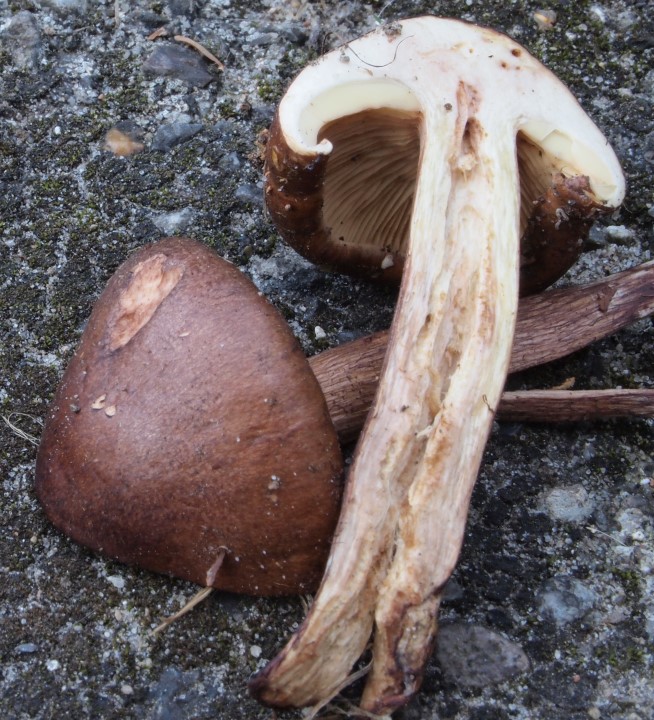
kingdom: Fungi
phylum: Basidiomycota
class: Agaricomycetes
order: Agaricales
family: Tricholomataceae
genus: Tricholoma
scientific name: Tricholoma fulvum
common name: birke-ridderhat
